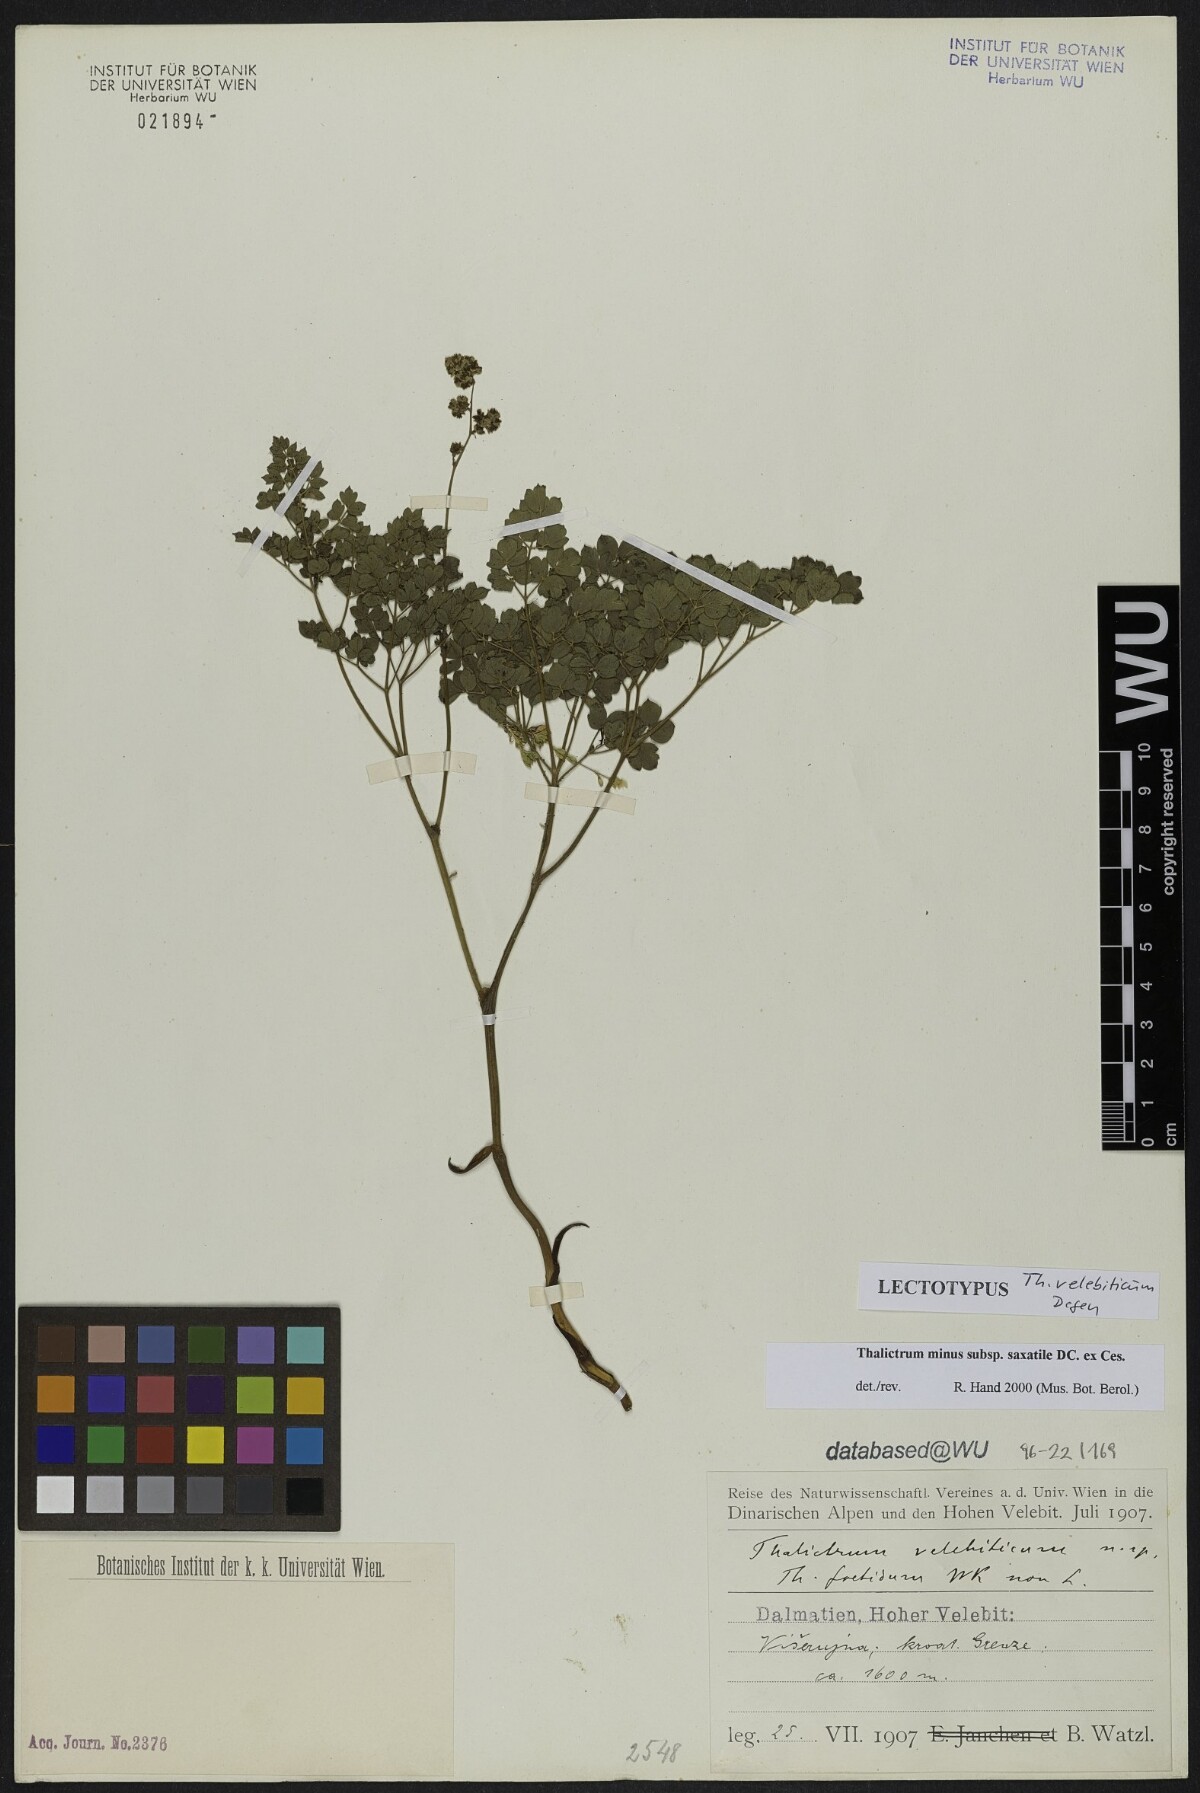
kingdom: Plantae
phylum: Tracheophyta
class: Magnoliopsida
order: Ranunculales
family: Ranunculaceae
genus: Thalictrum
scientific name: Thalictrum minus
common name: Lesser meadow-rue
